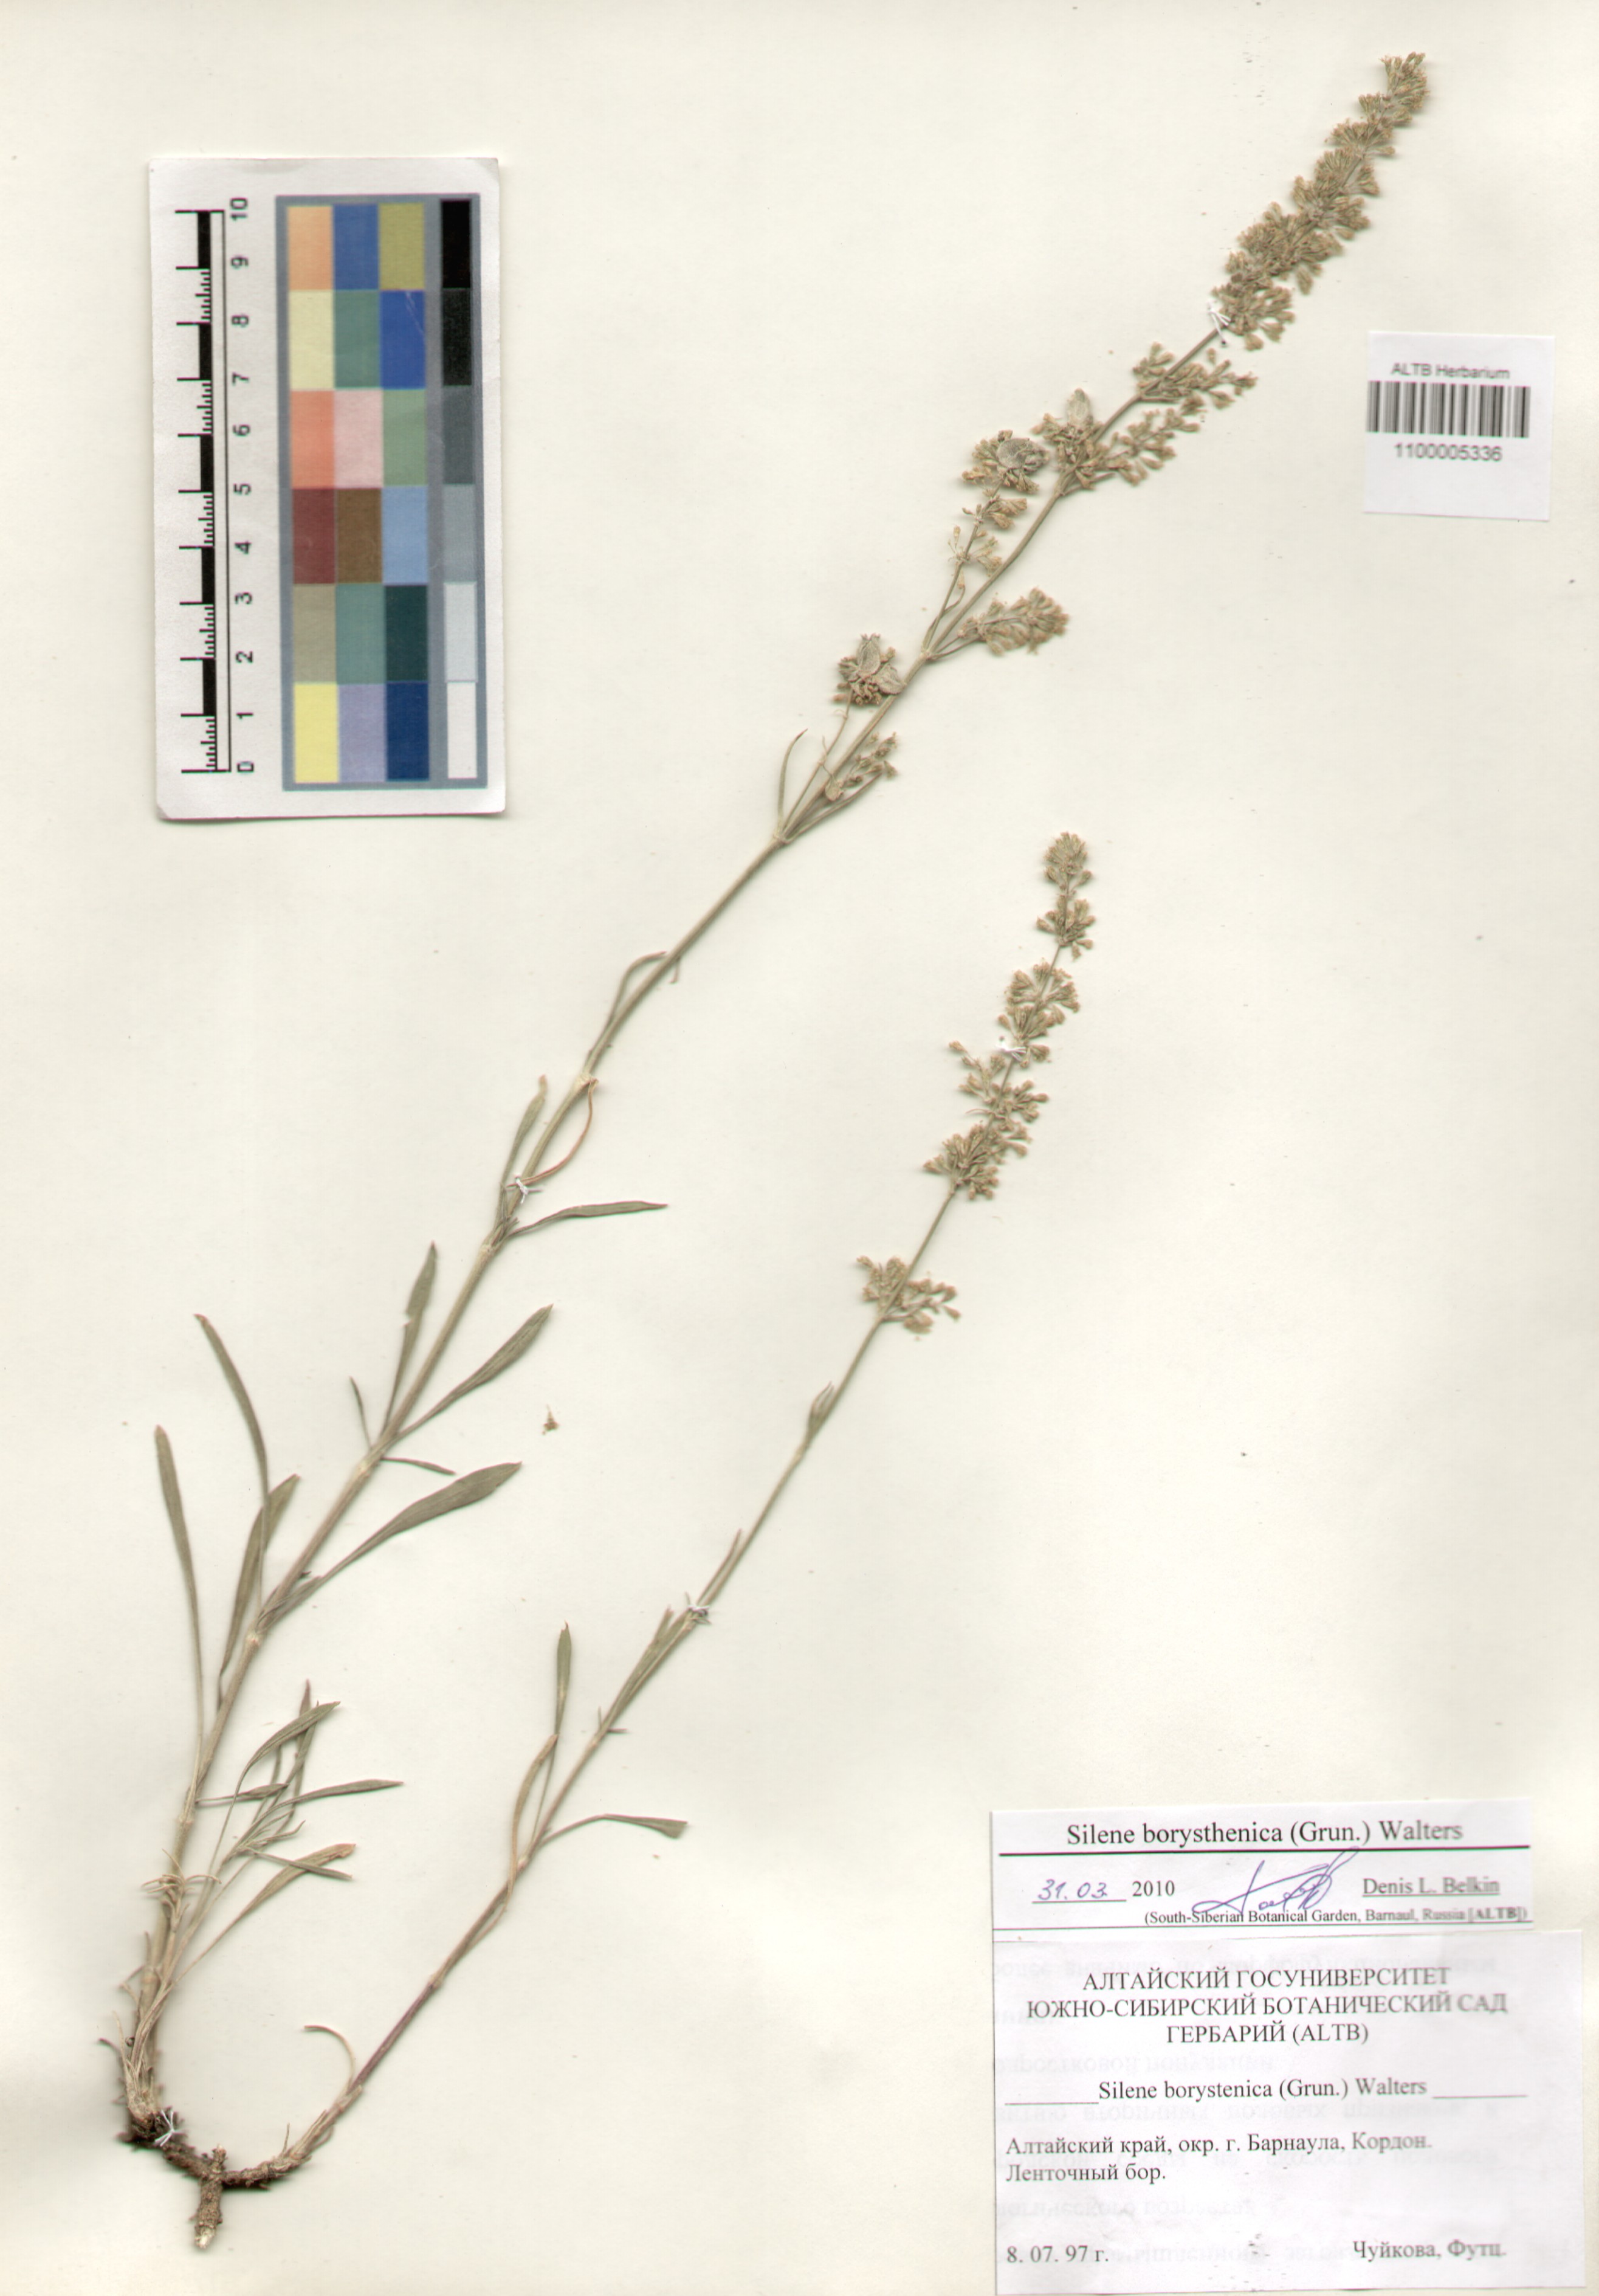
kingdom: Plantae
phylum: Tracheophyta
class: Magnoliopsida
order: Caryophyllales
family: Caryophyllaceae
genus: Silene
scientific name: Silene borysthenica
